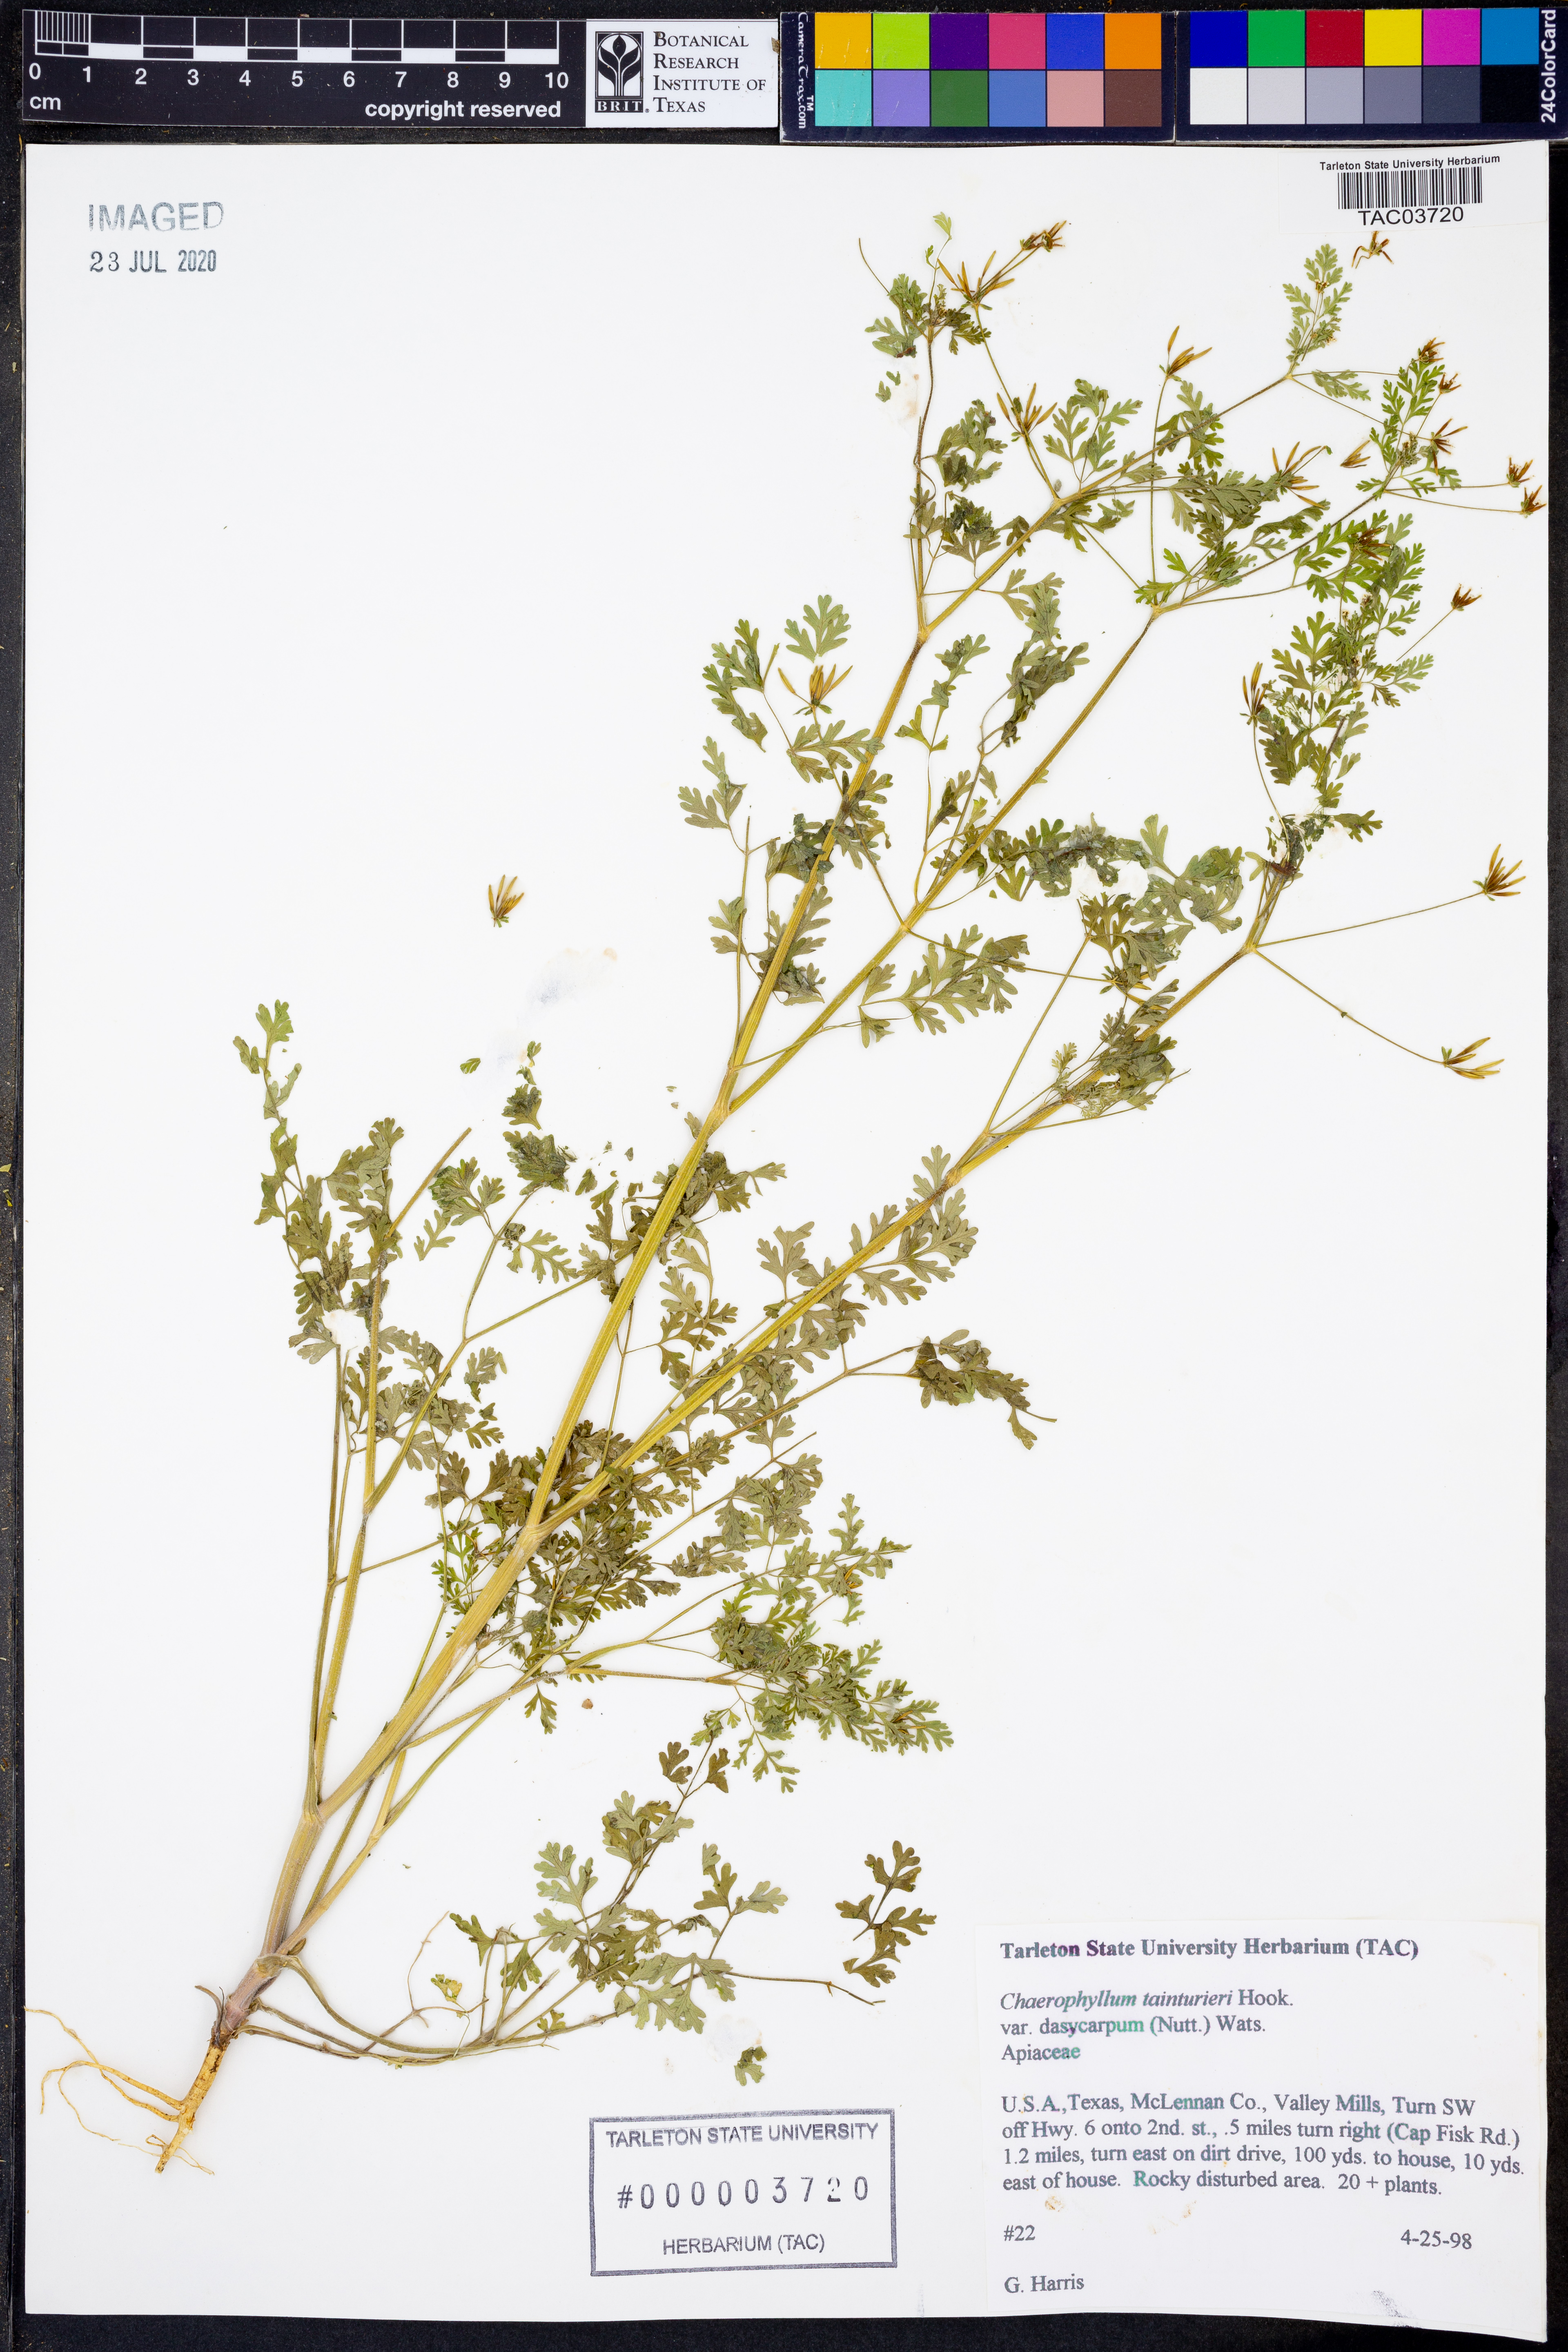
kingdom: Plantae
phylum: Tracheophyta
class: Magnoliopsida
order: Apiales
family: Apiaceae
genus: Chaerophyllum
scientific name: Chaerophyllum dasycarpum
